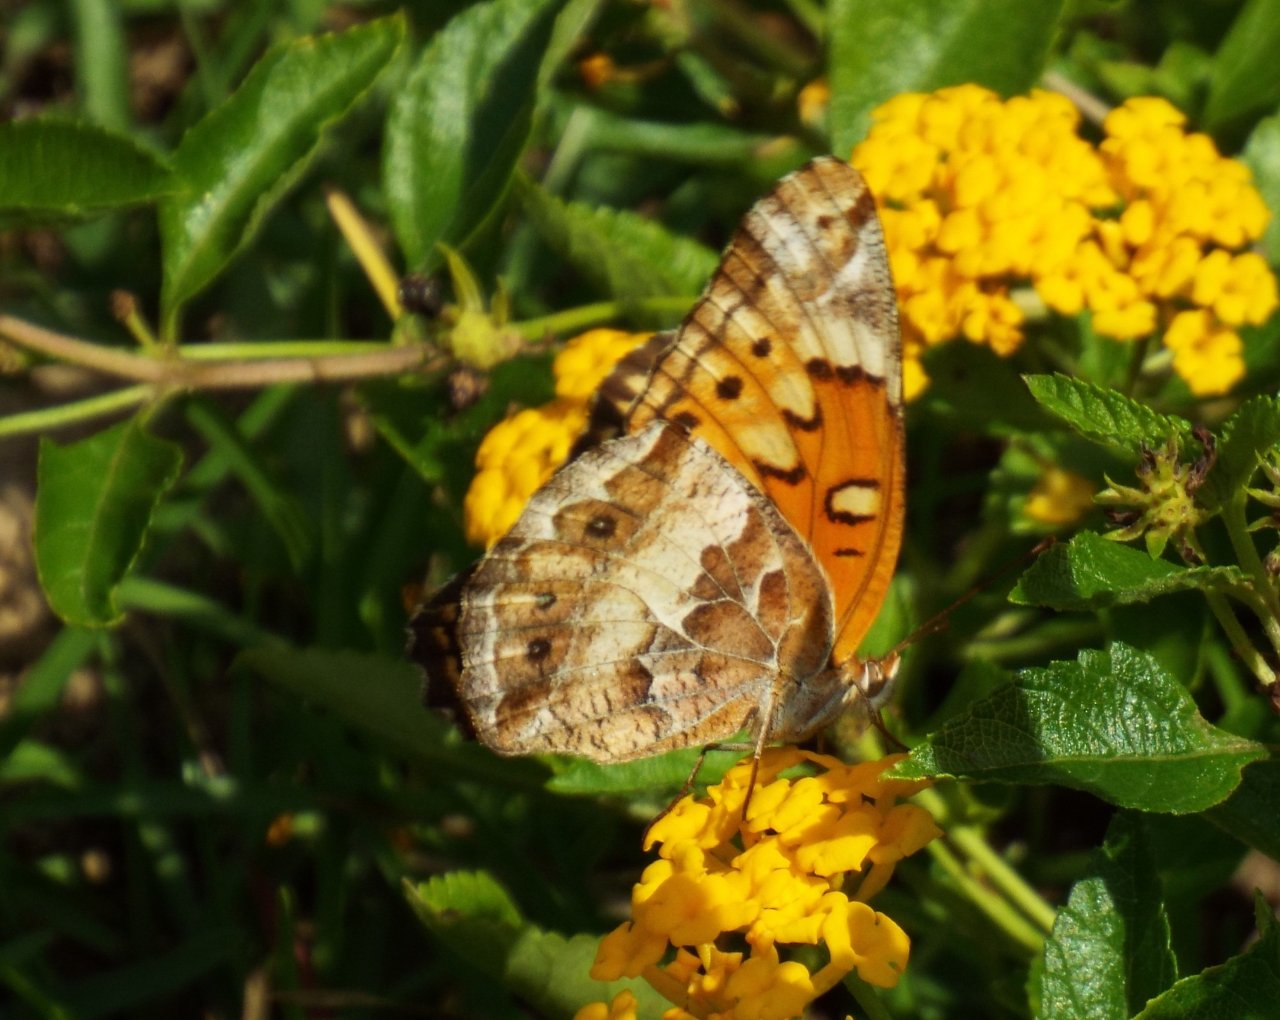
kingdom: Animalia
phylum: Arthropoda
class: Insecta
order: Lepidoptera
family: Nymphalidae
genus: Euptoieta
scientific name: Euptoieta claudia
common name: Variegated Fritillary
